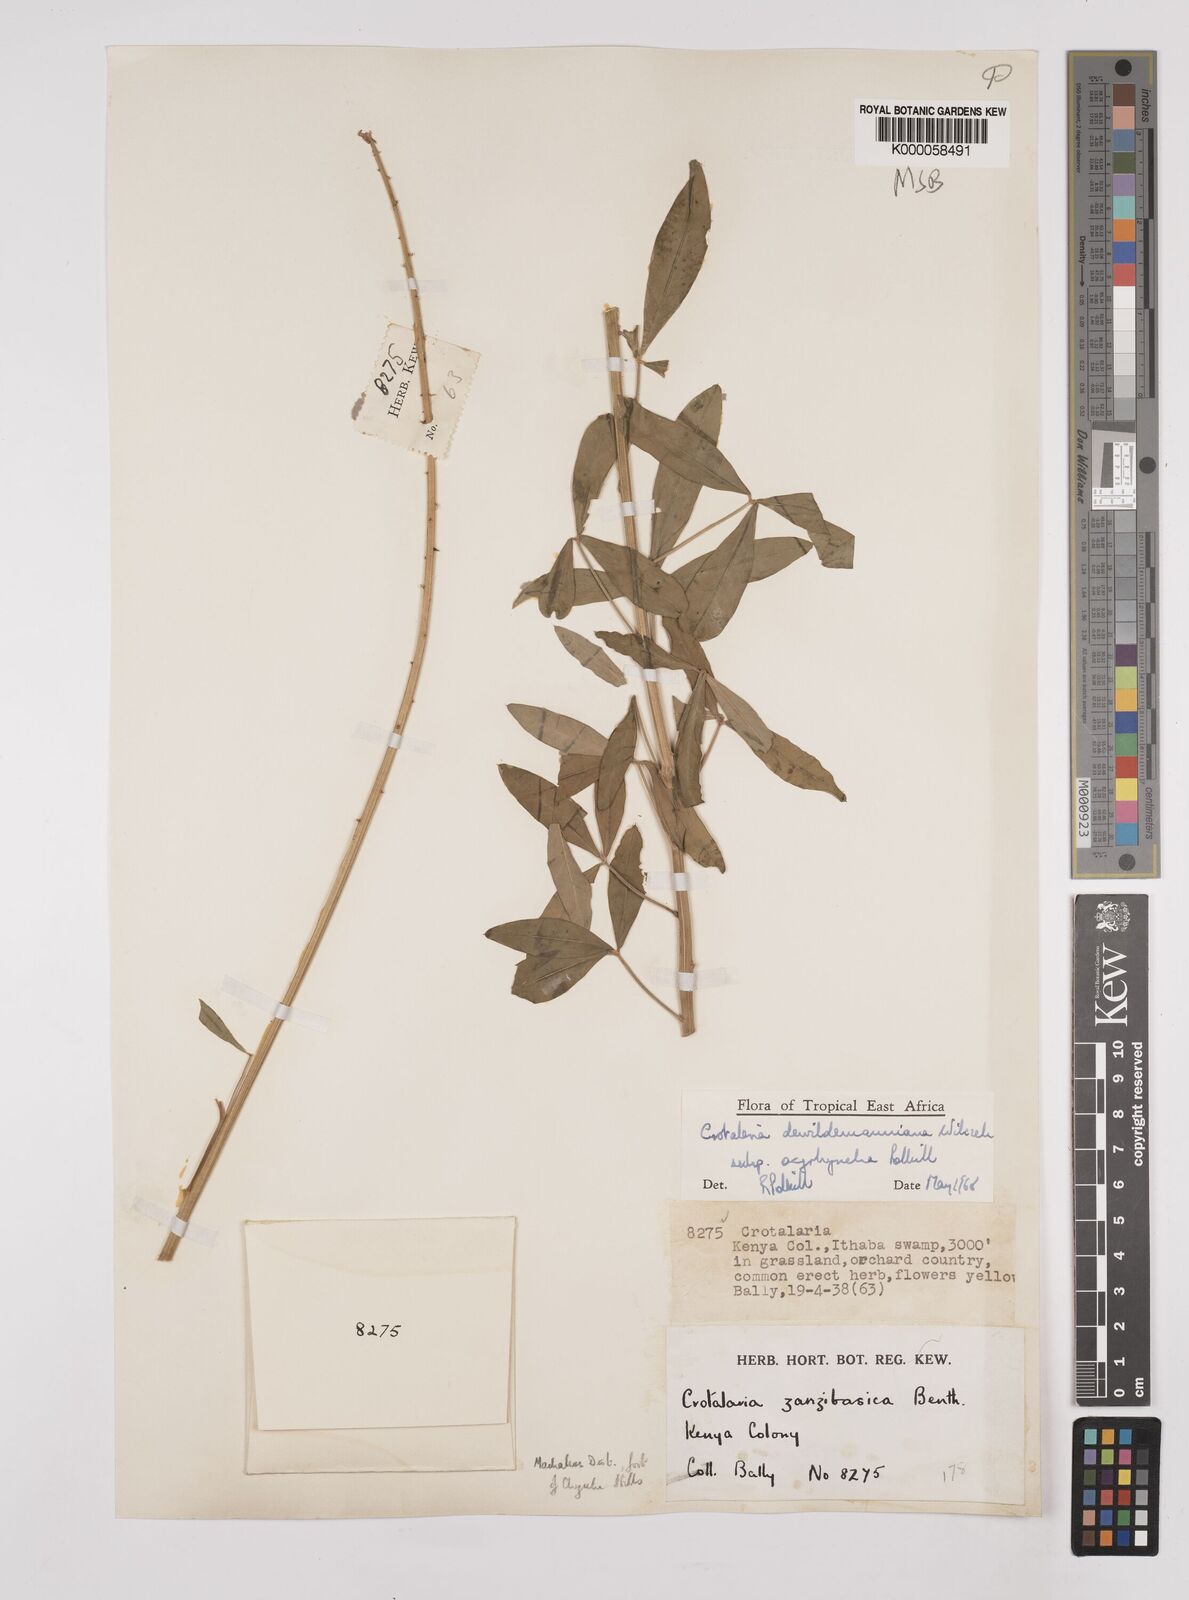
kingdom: Plantae
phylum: Tracheophyta
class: Magnoliopsida
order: Fabales
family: Fabaceae
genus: Crotalaria
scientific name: Crotalaria dewildemaniana
